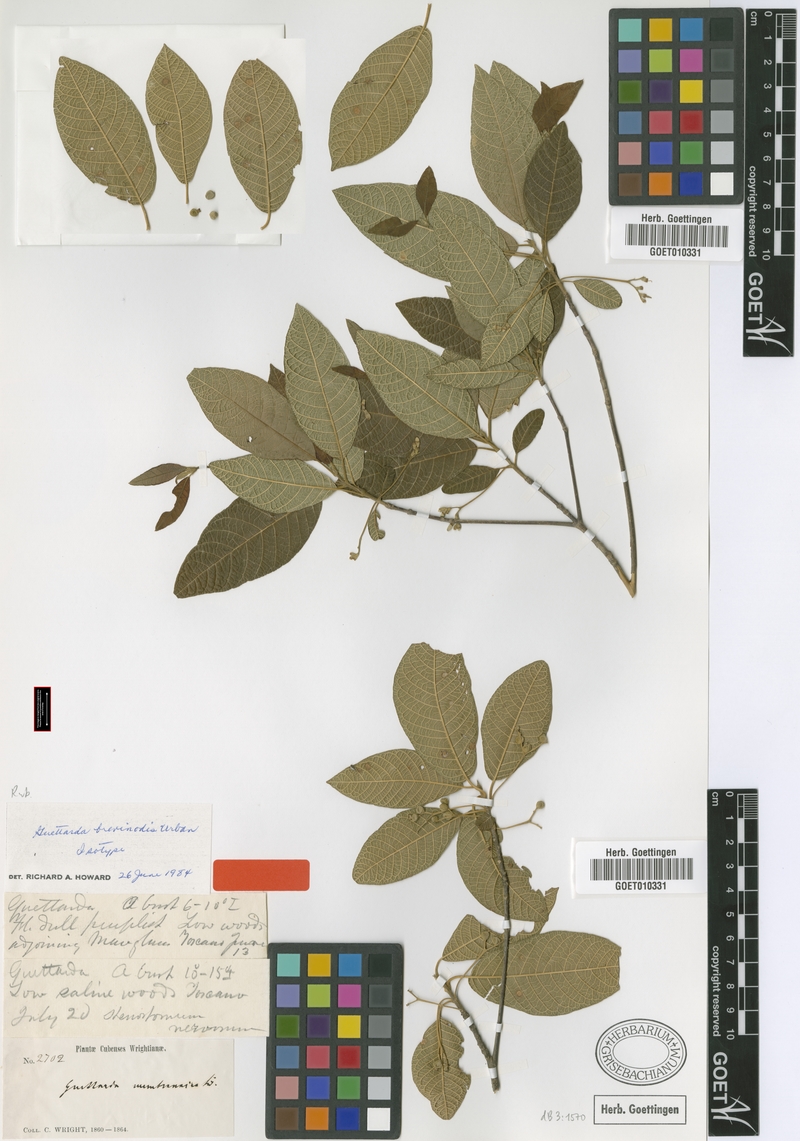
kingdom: Plantae
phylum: Tracheophyta
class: Magnoliopsida
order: Gentianales
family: Rubiaceae
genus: Guettarda
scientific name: Guettarda brevinodis
